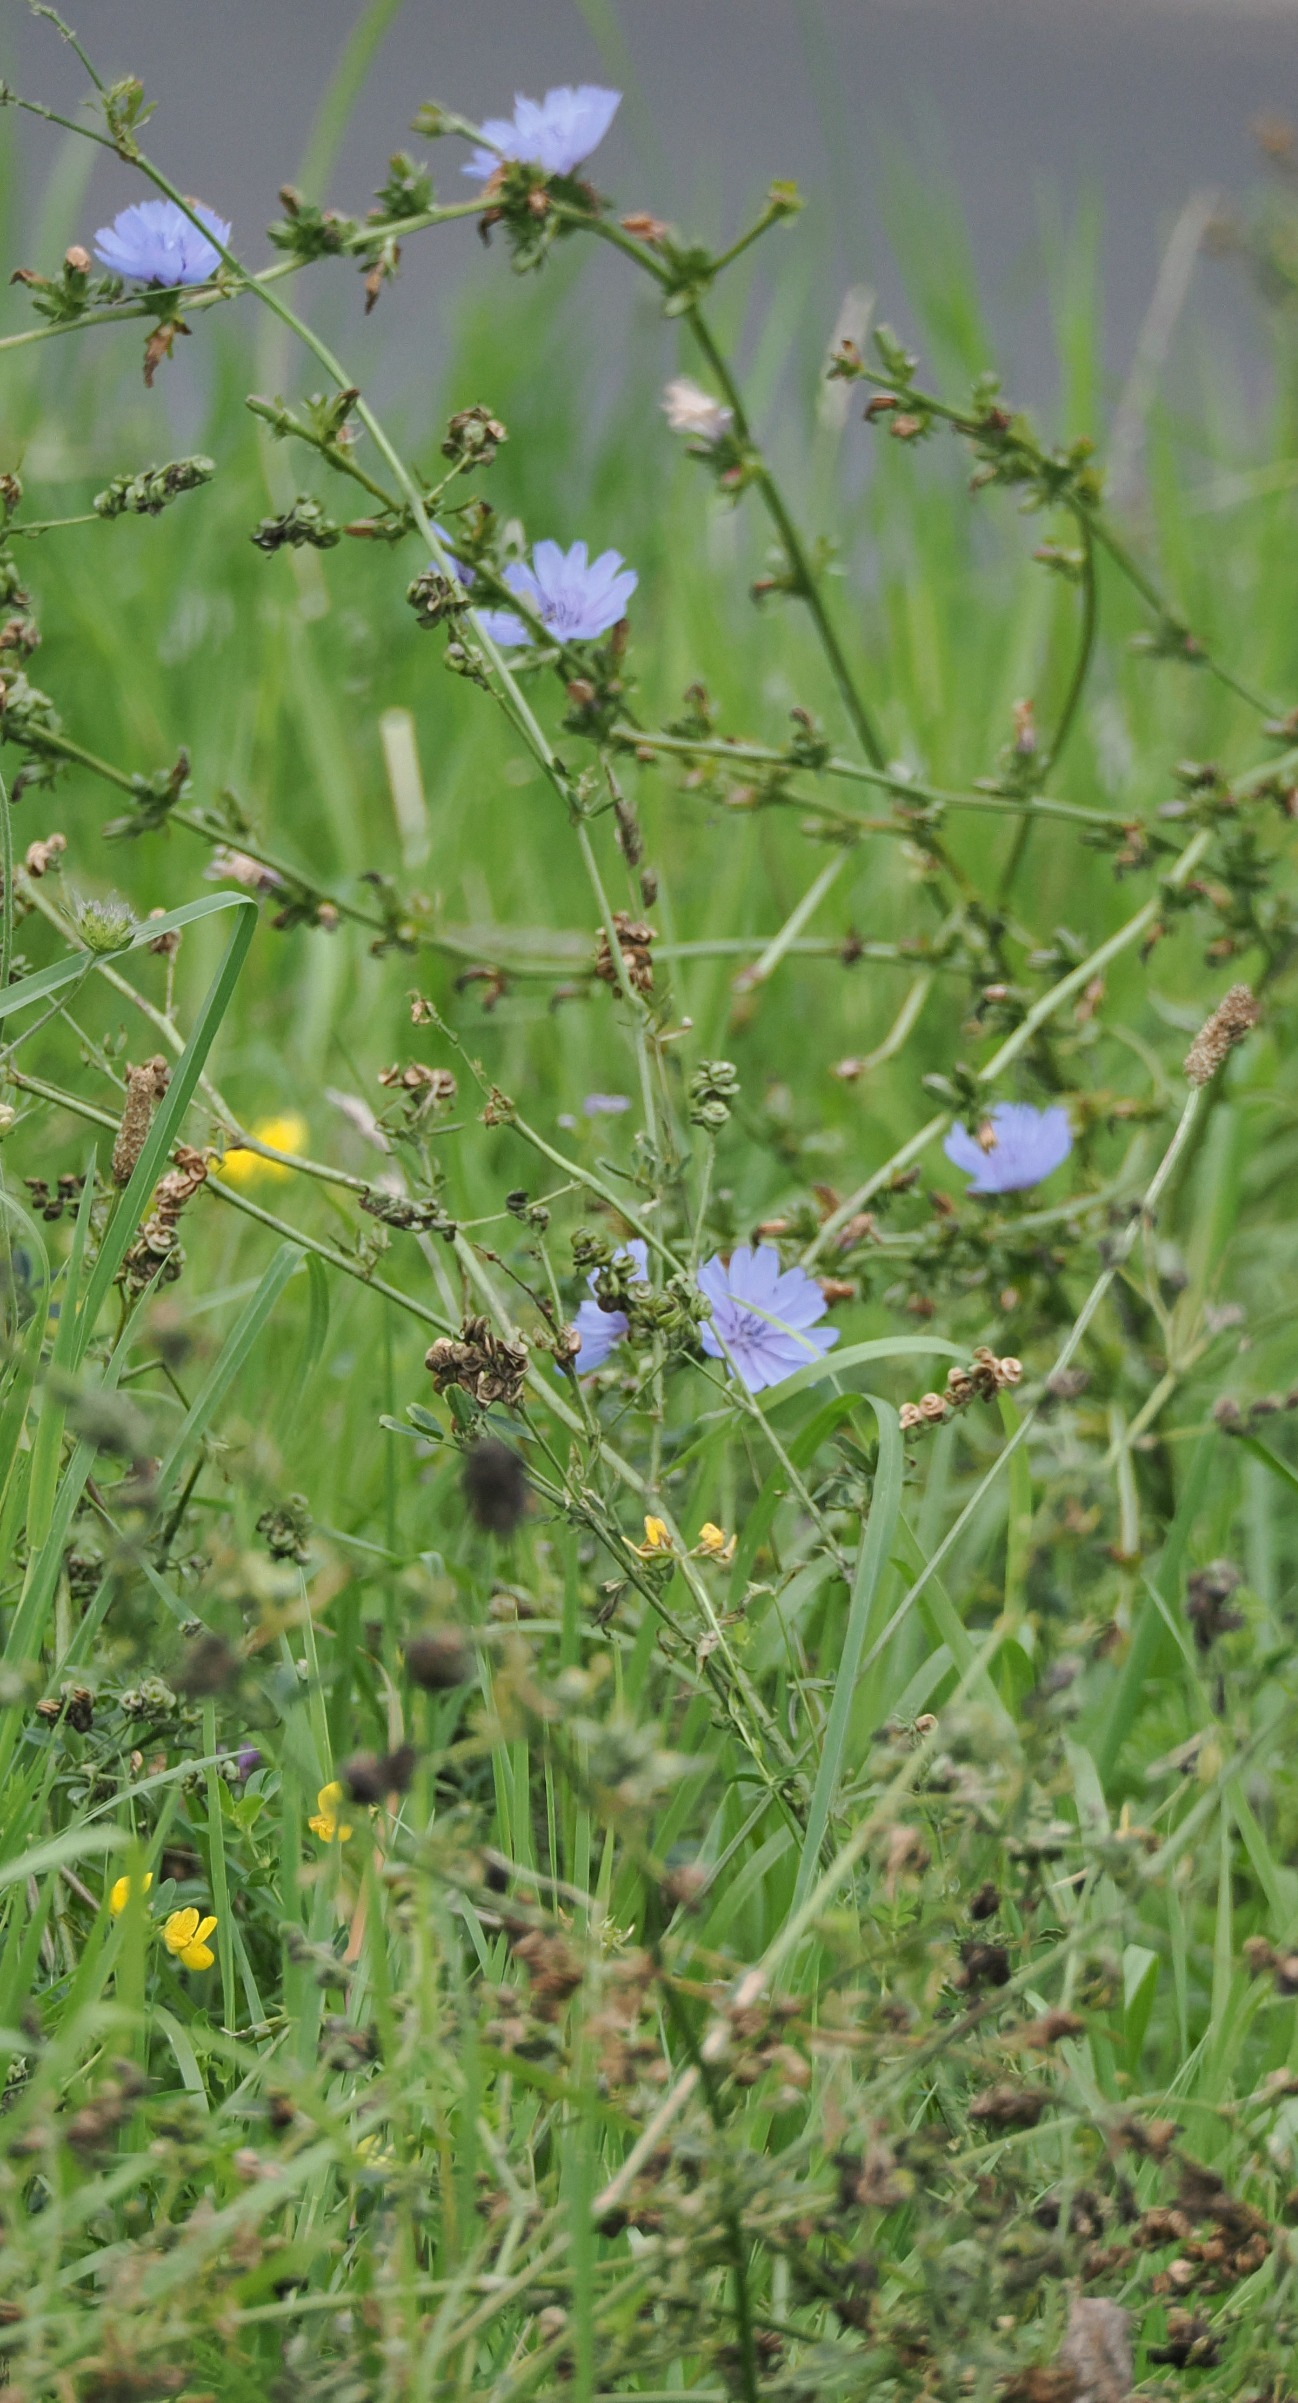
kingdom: Plantae
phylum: Tracheophyta
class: Magnoliopsida
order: Asterales
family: Asteraceae
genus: Cichorium
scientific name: Cichorium intybus
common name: Cikorie
